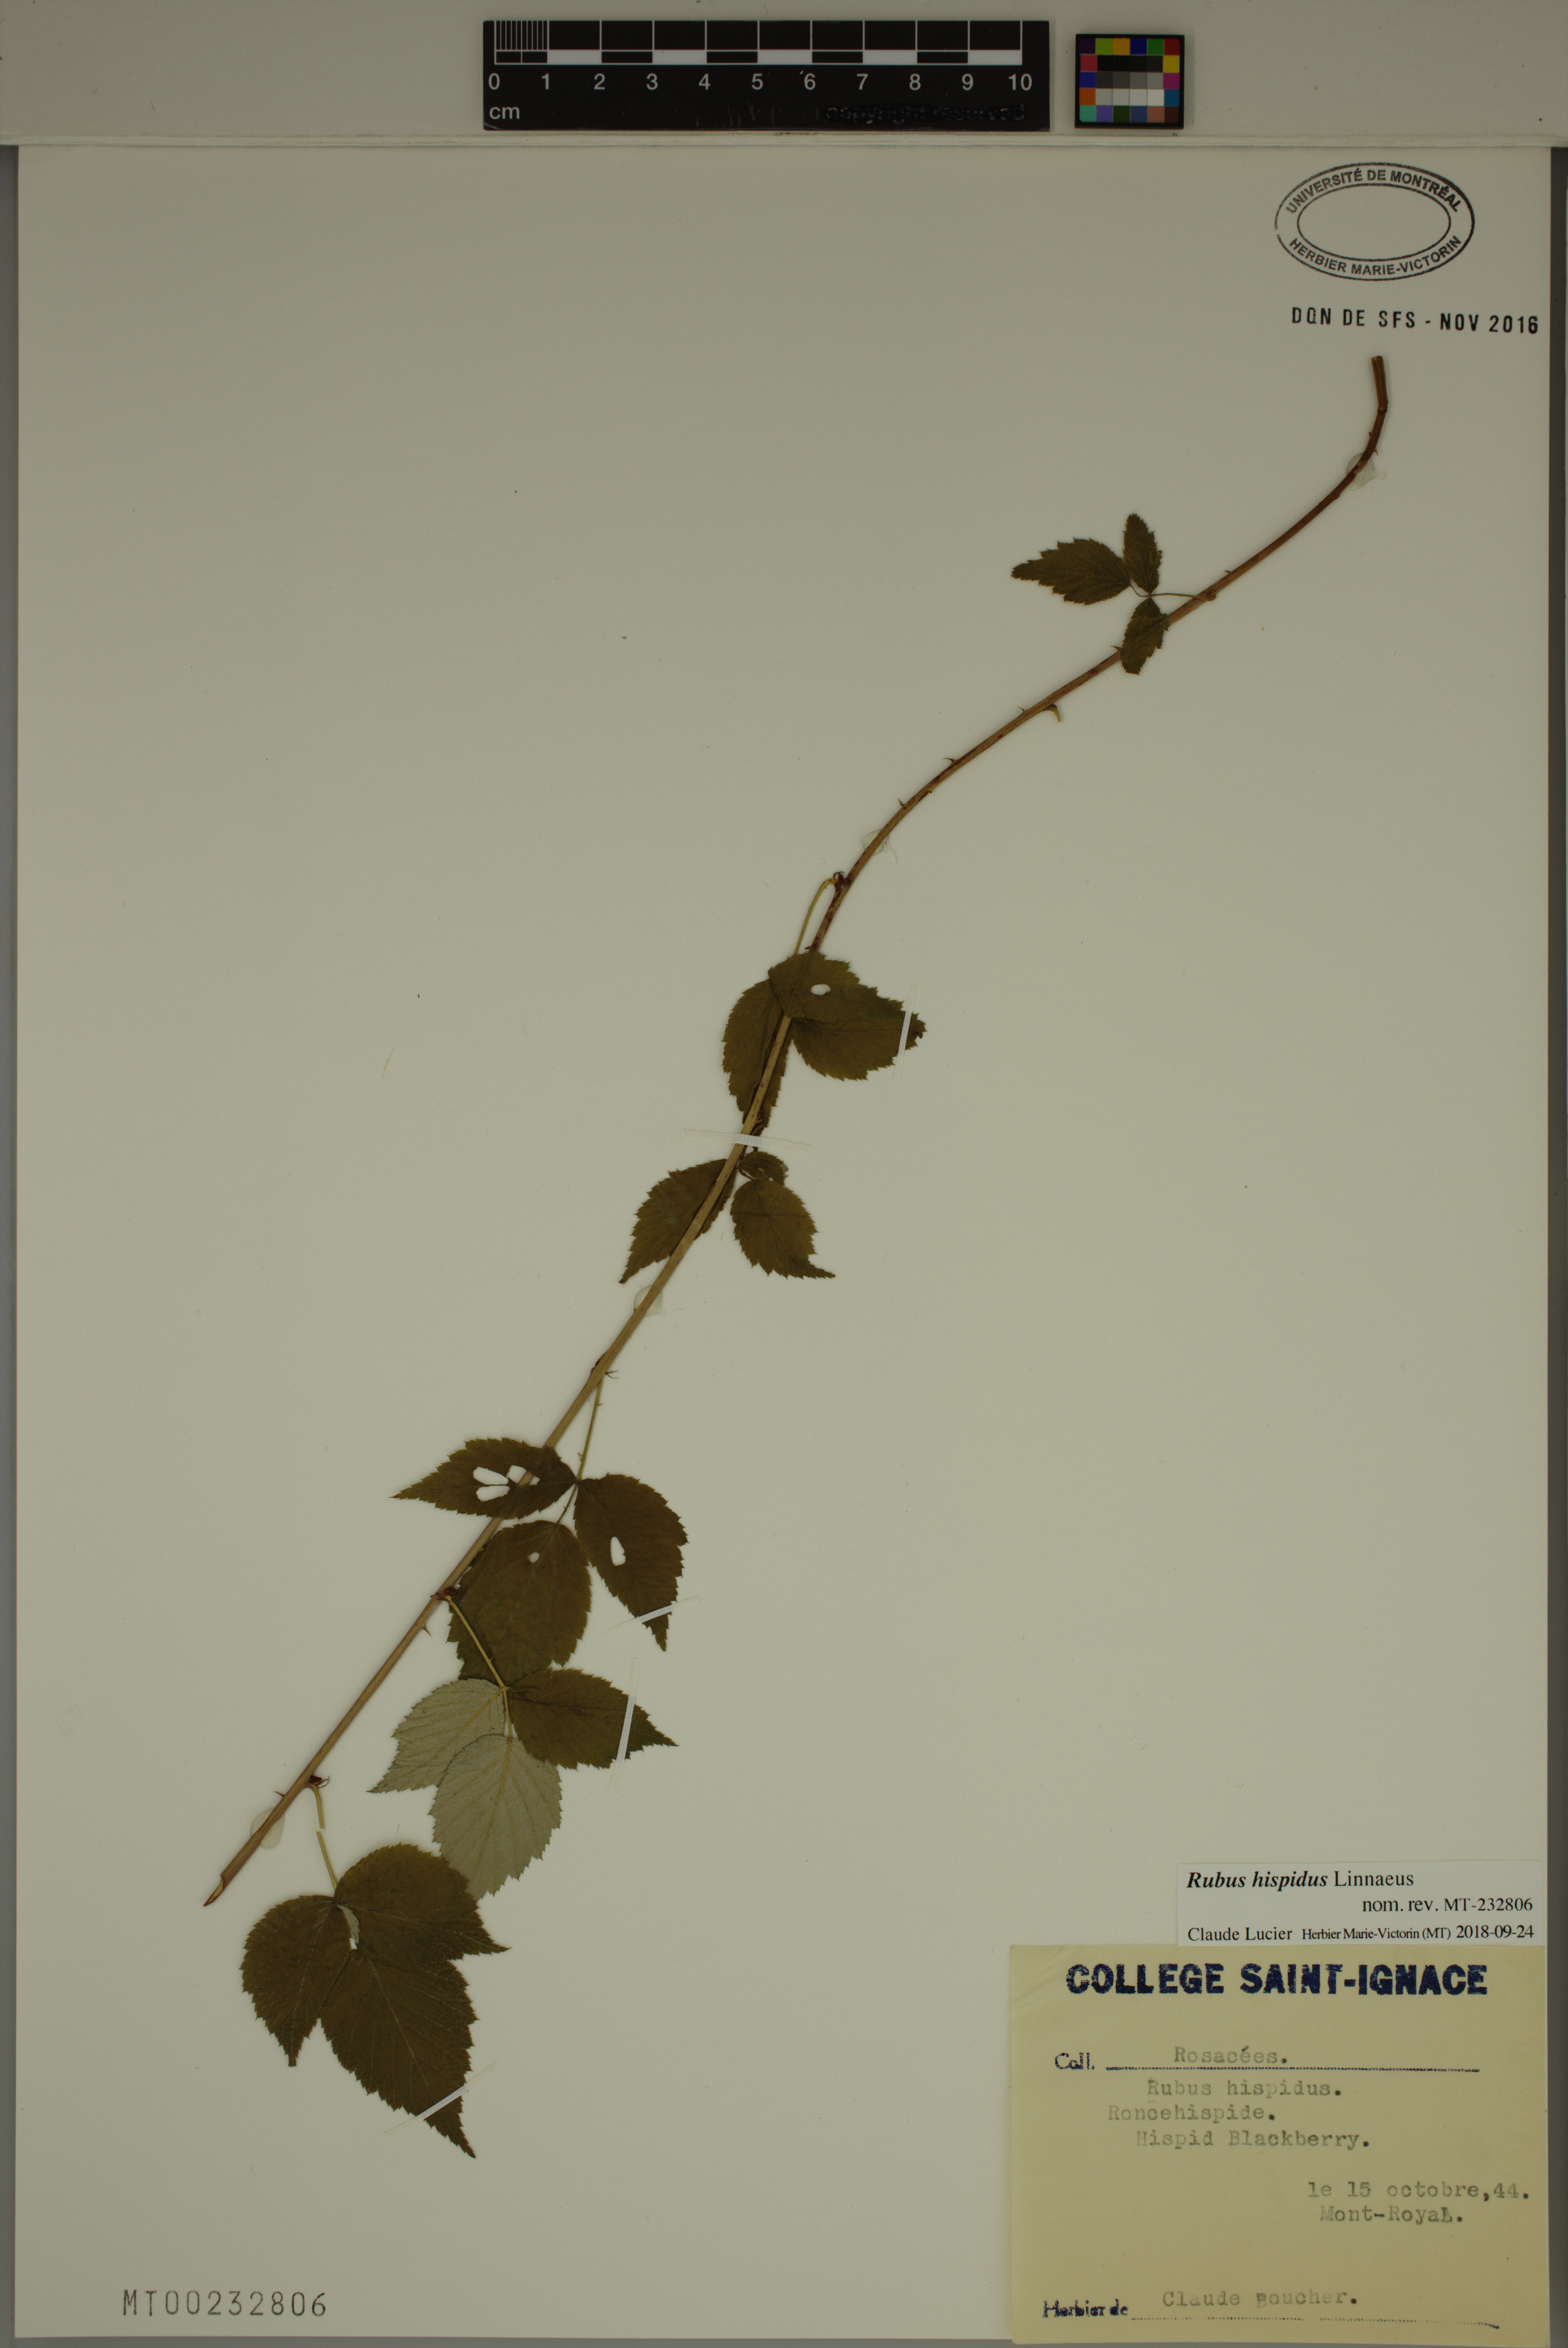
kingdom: Plantae
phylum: Tracheophyta
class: Magnoliopsida
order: Rosales
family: Rosaceae
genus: Rubus
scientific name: Rubus hispidus
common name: Running blackberry
